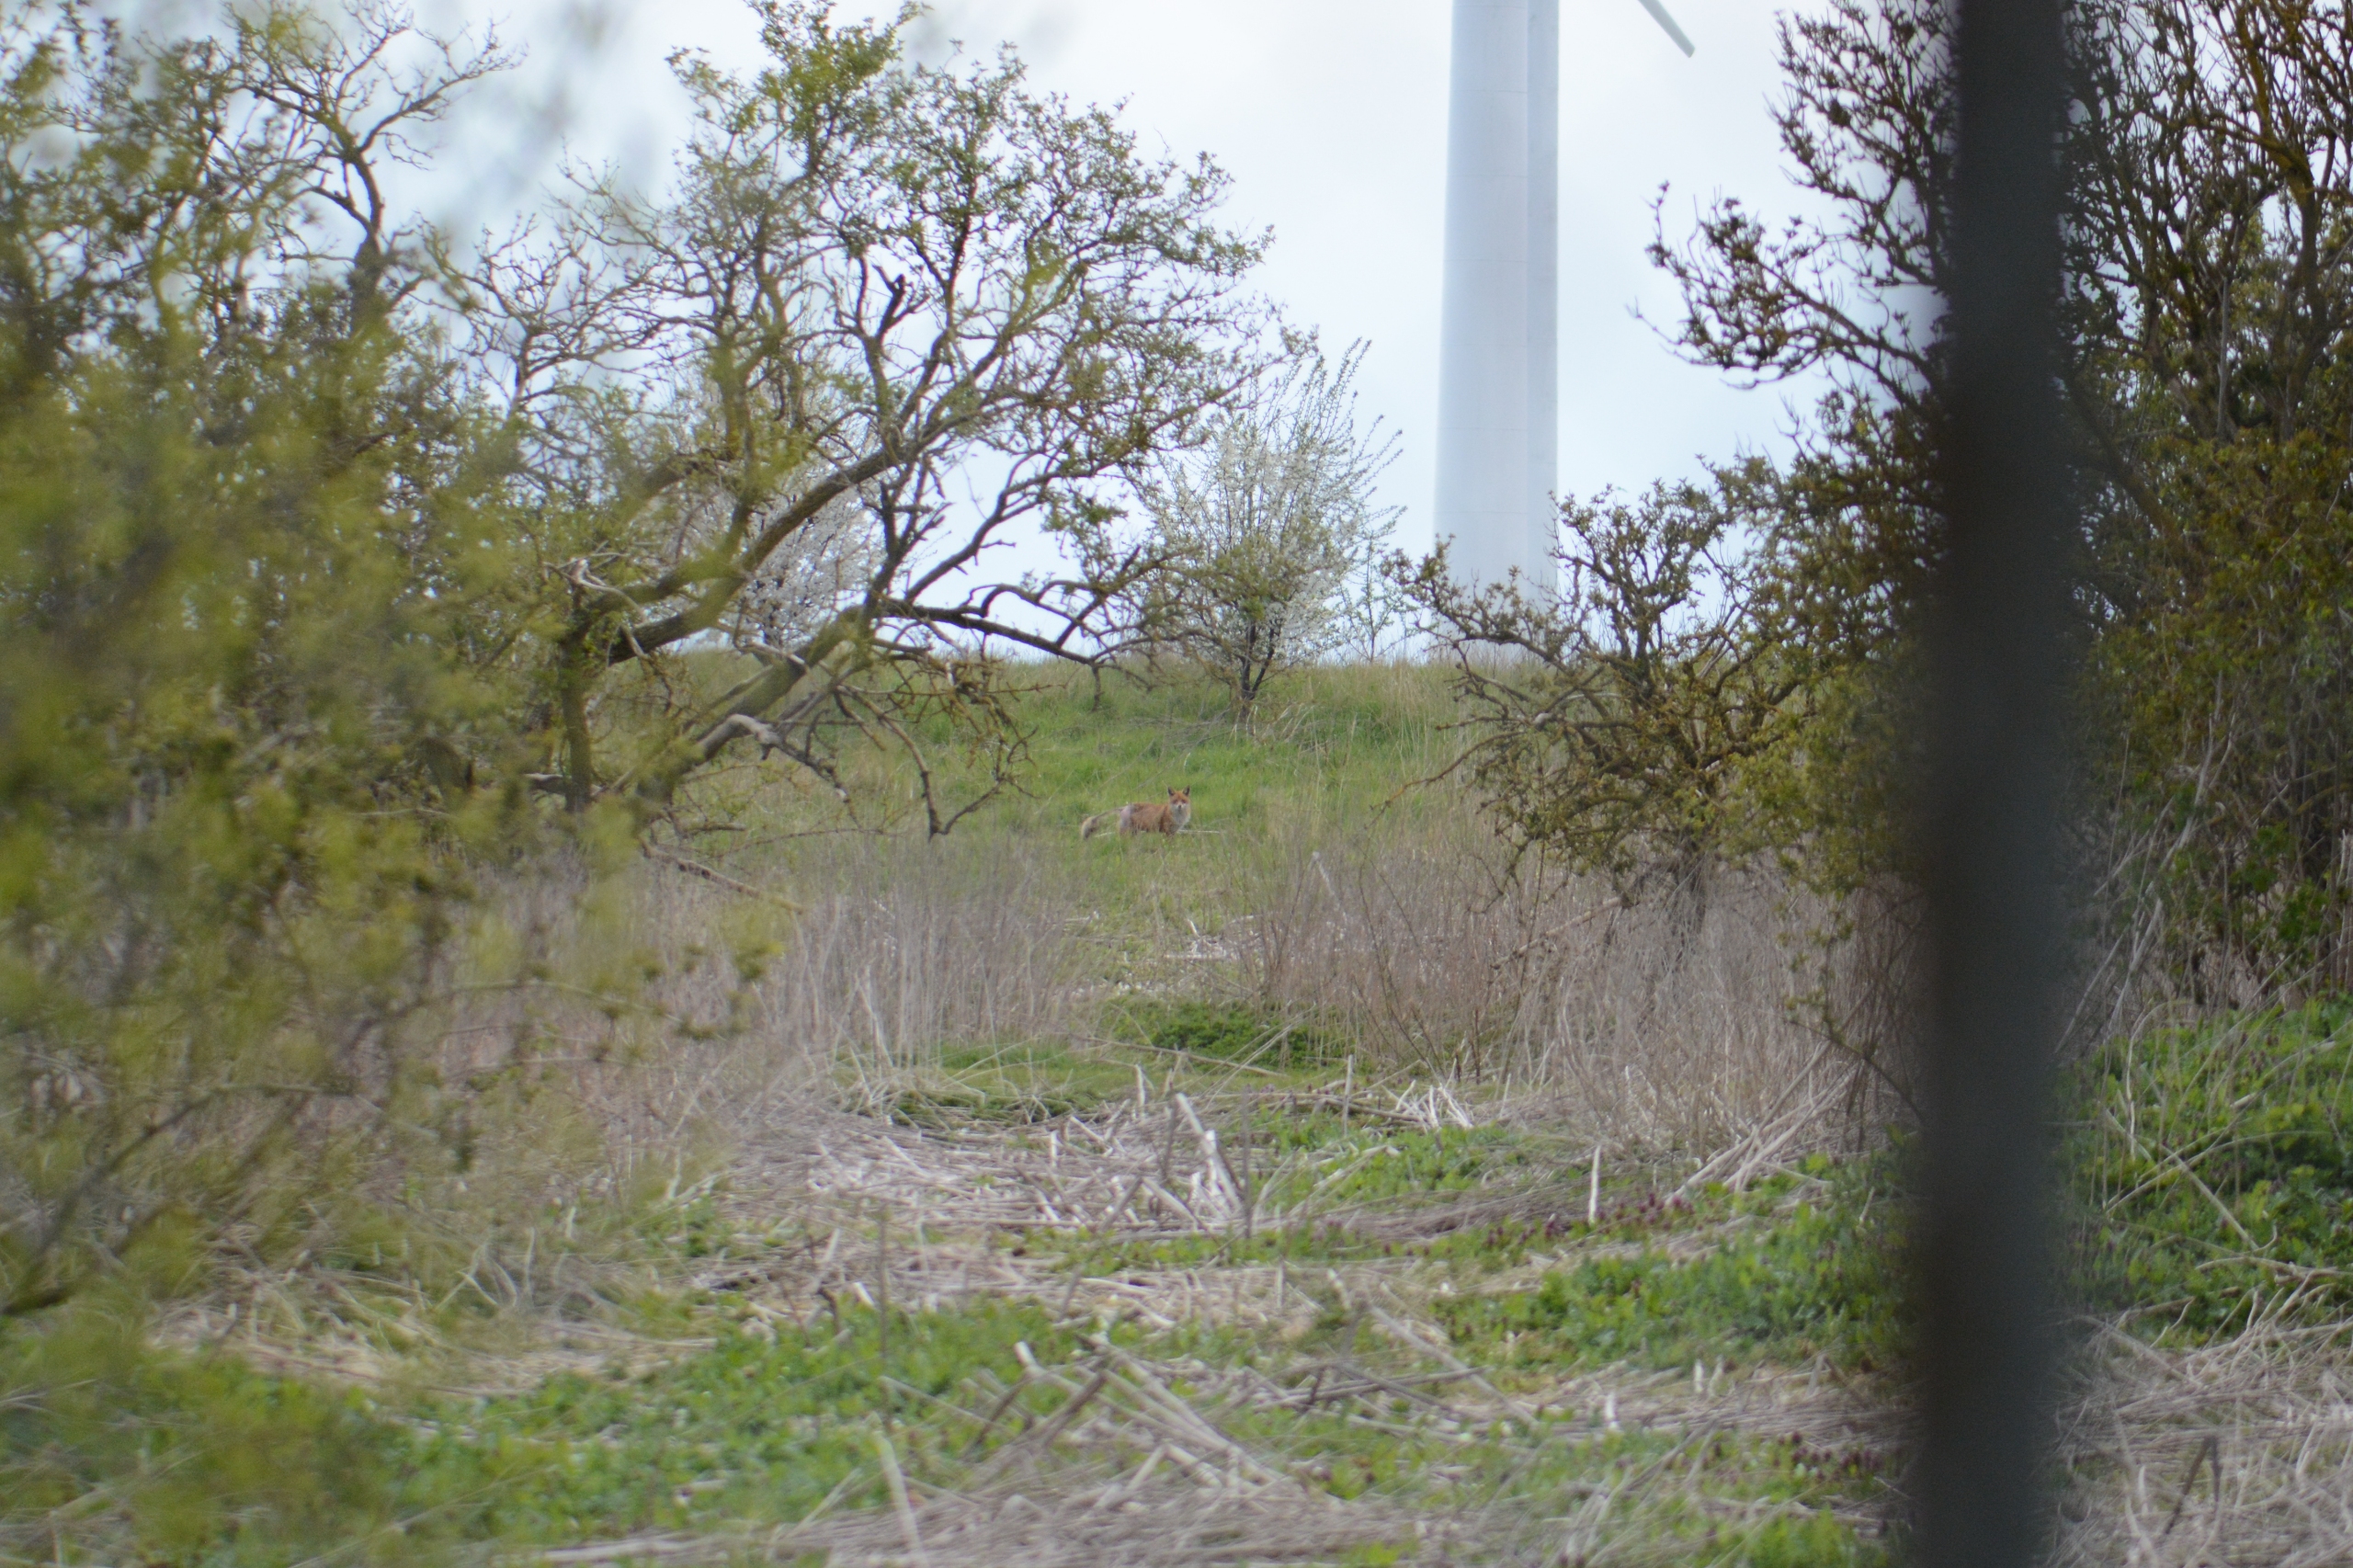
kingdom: Animalia
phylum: Chordata
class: Mammalia
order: Carnivora
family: Canidae
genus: Vulpes
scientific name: Vulpes vulpes
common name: Ræv
